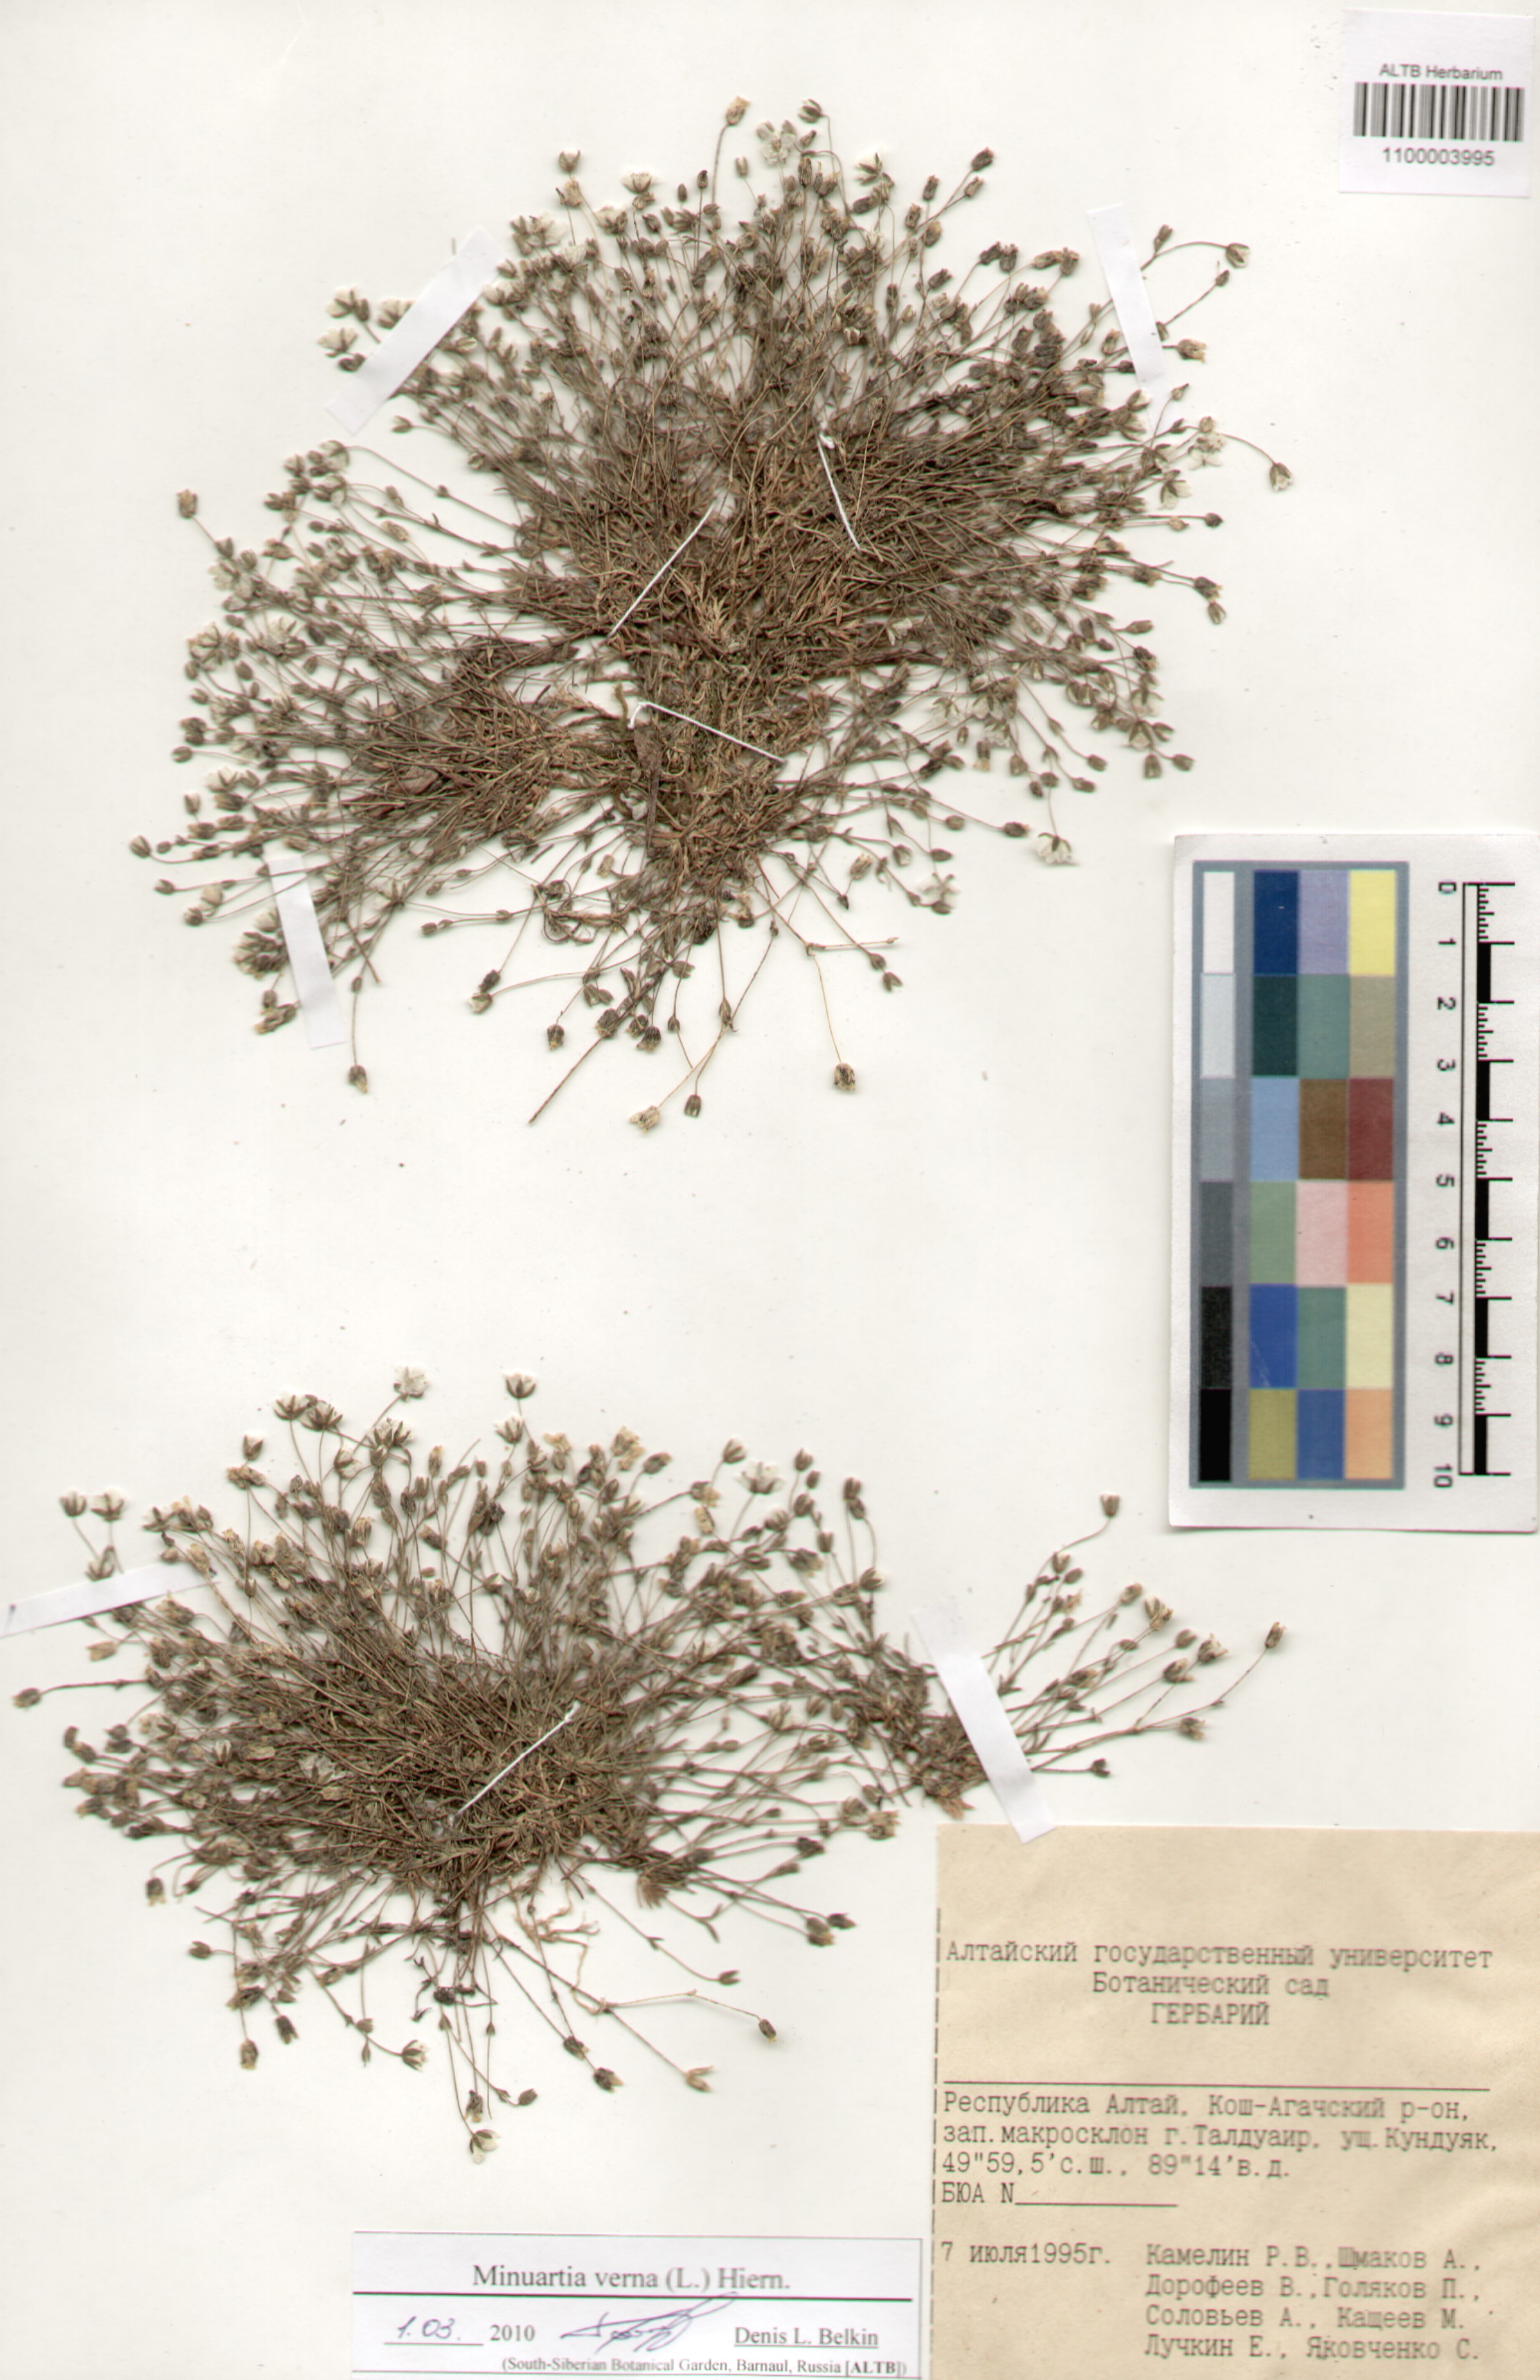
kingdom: Plantae
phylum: Tracheophyta
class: Magnoliopsida
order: Caryophyllales
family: Caryophyllaceae
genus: Sabulina
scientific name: Sabulina verna
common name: Spring sandwort
